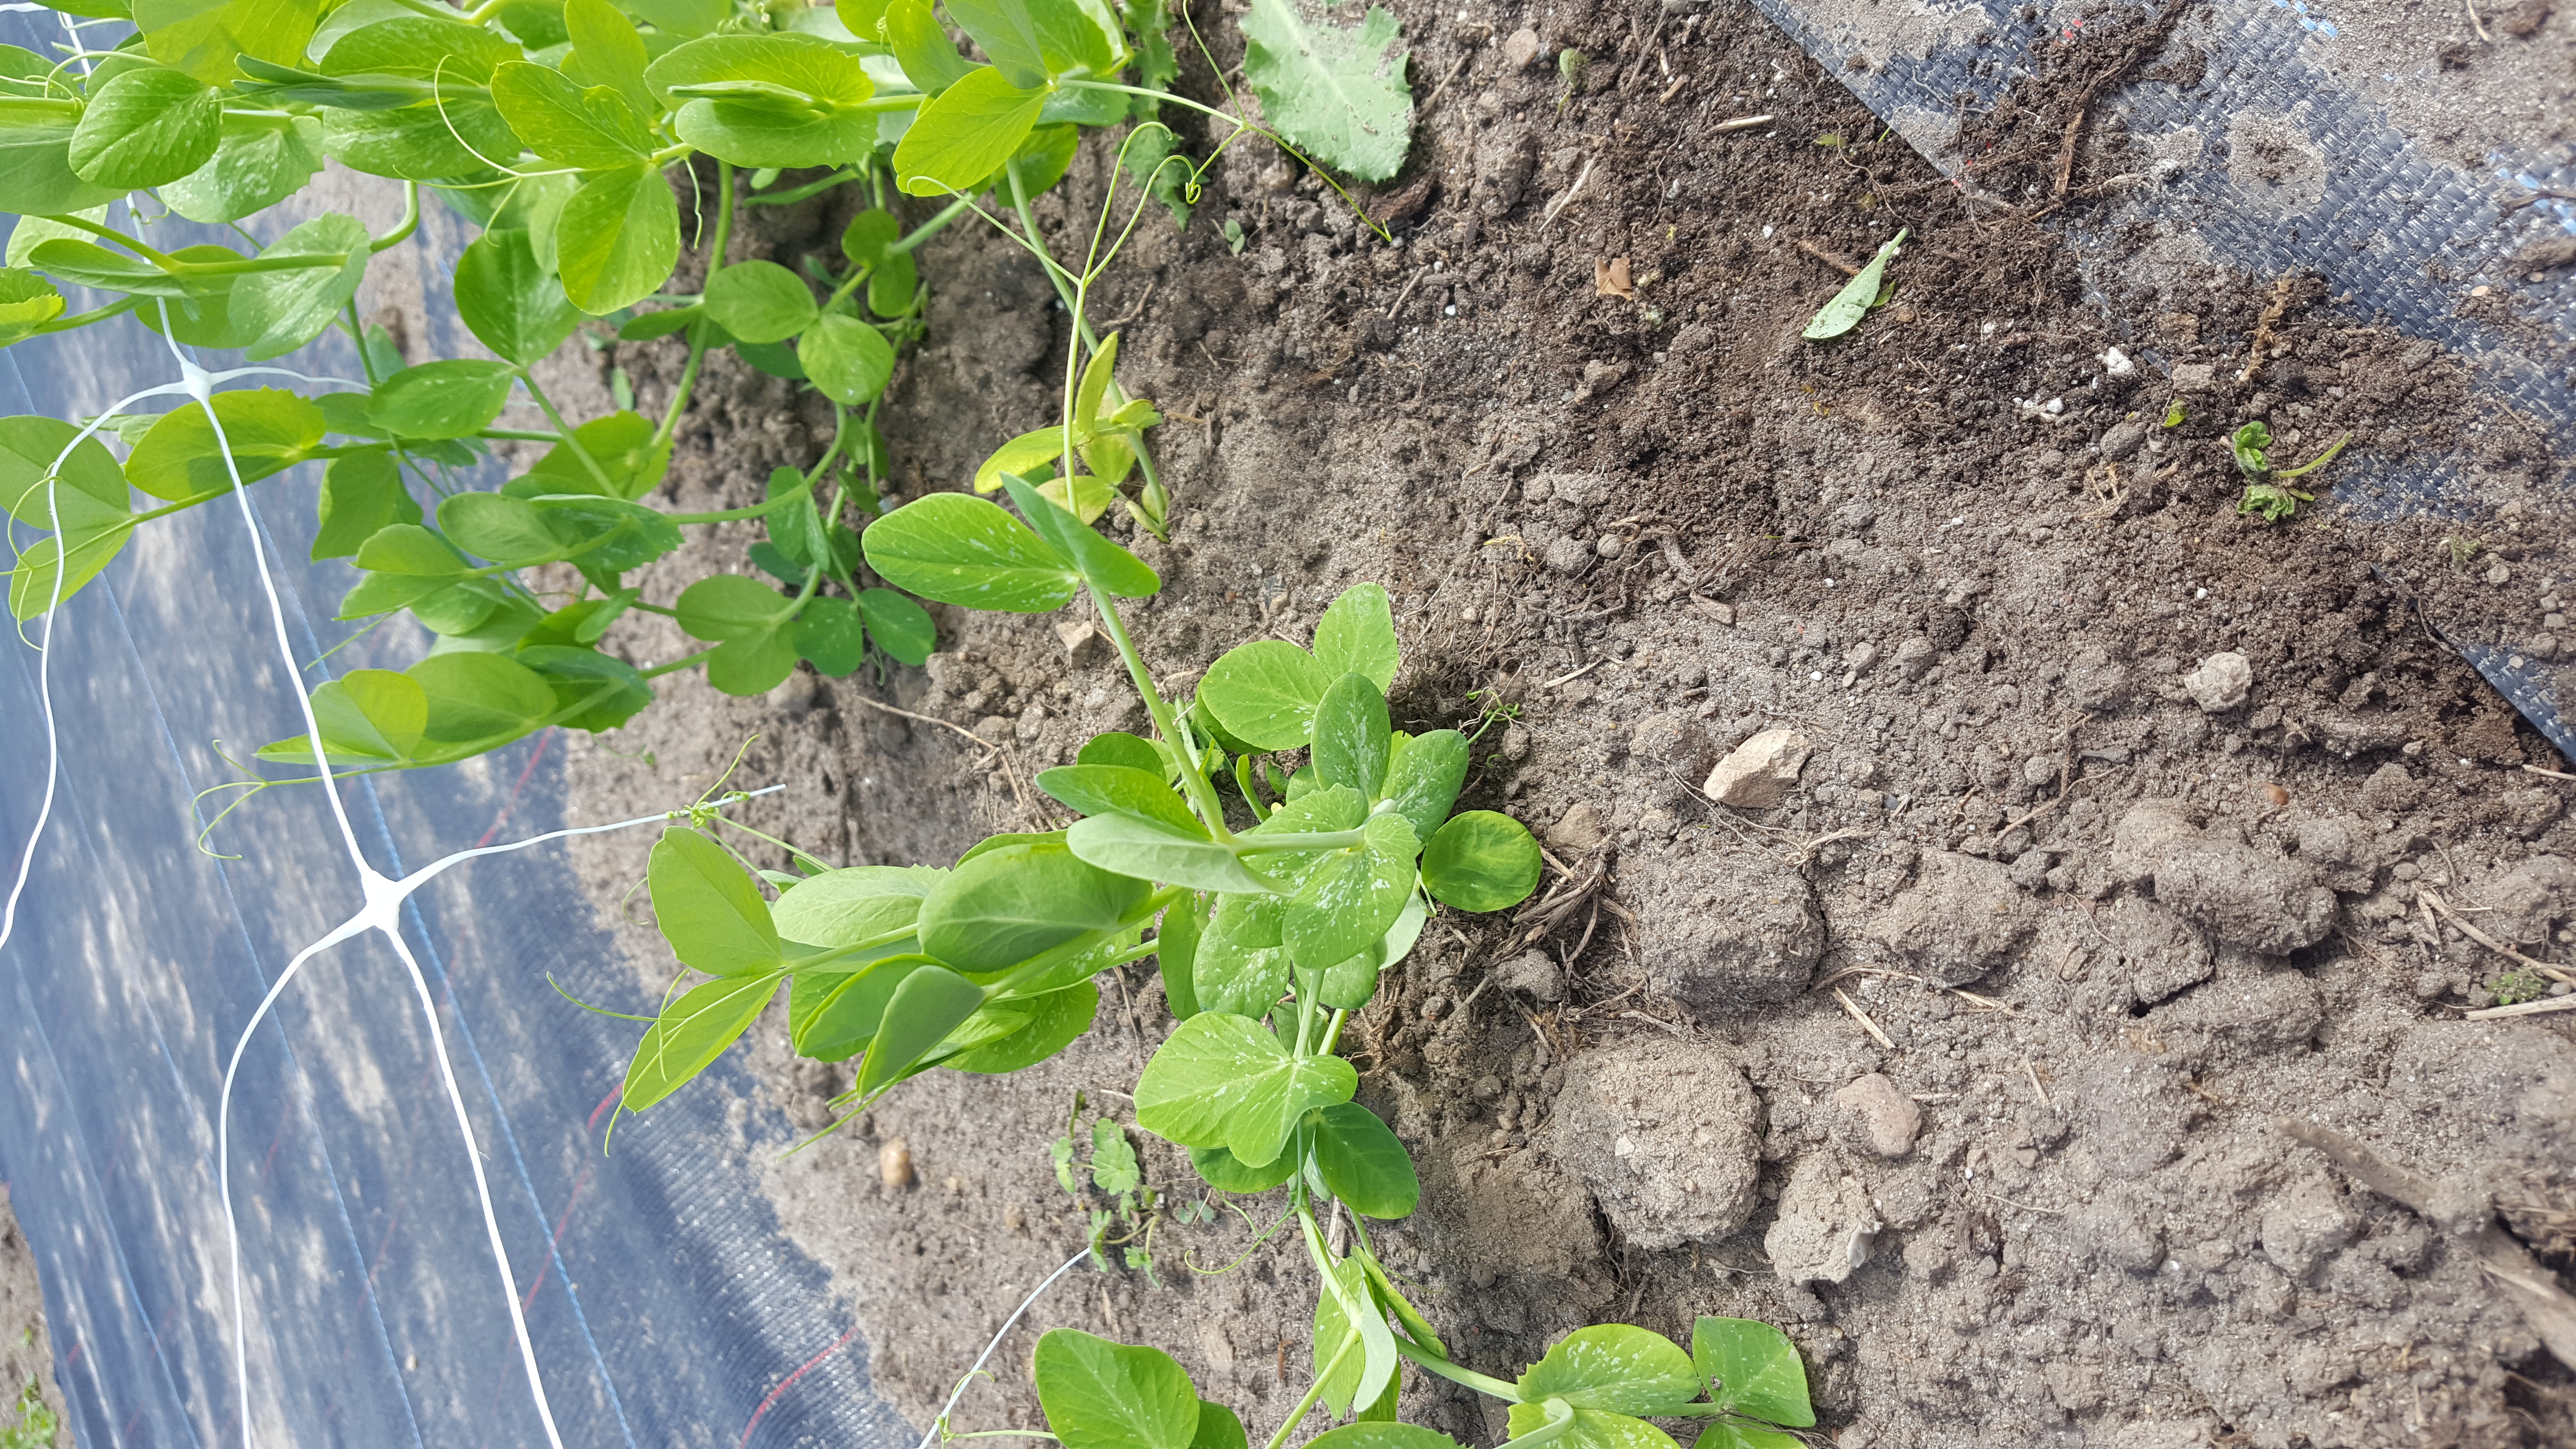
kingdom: Plantae
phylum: Tracheophyta
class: Magnoliopsida
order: Fabales
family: Fabaceae
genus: Lathyrus
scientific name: Lathyrus oleraceus
